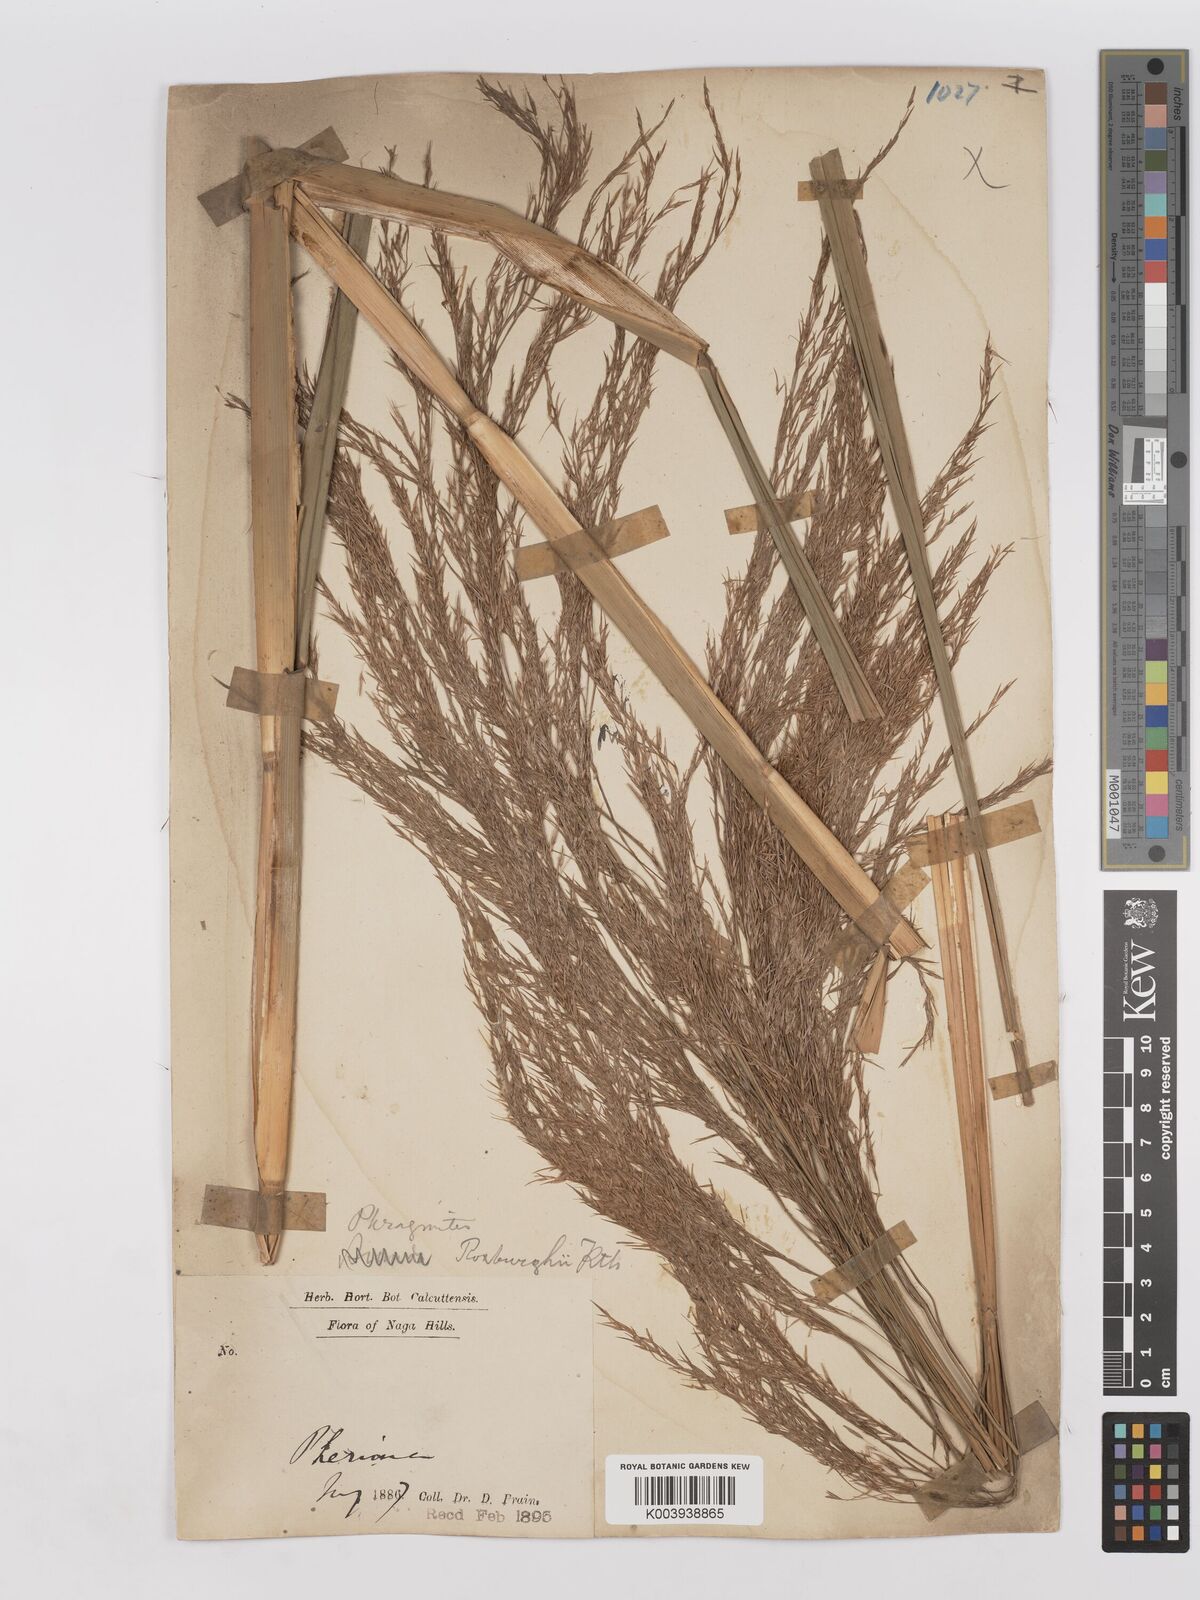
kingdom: Plantae
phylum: Tracheophyta
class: Liliopsida
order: Poales
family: Poaceae
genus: Phragmites
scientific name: Phragmites karka
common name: Tropical reed
